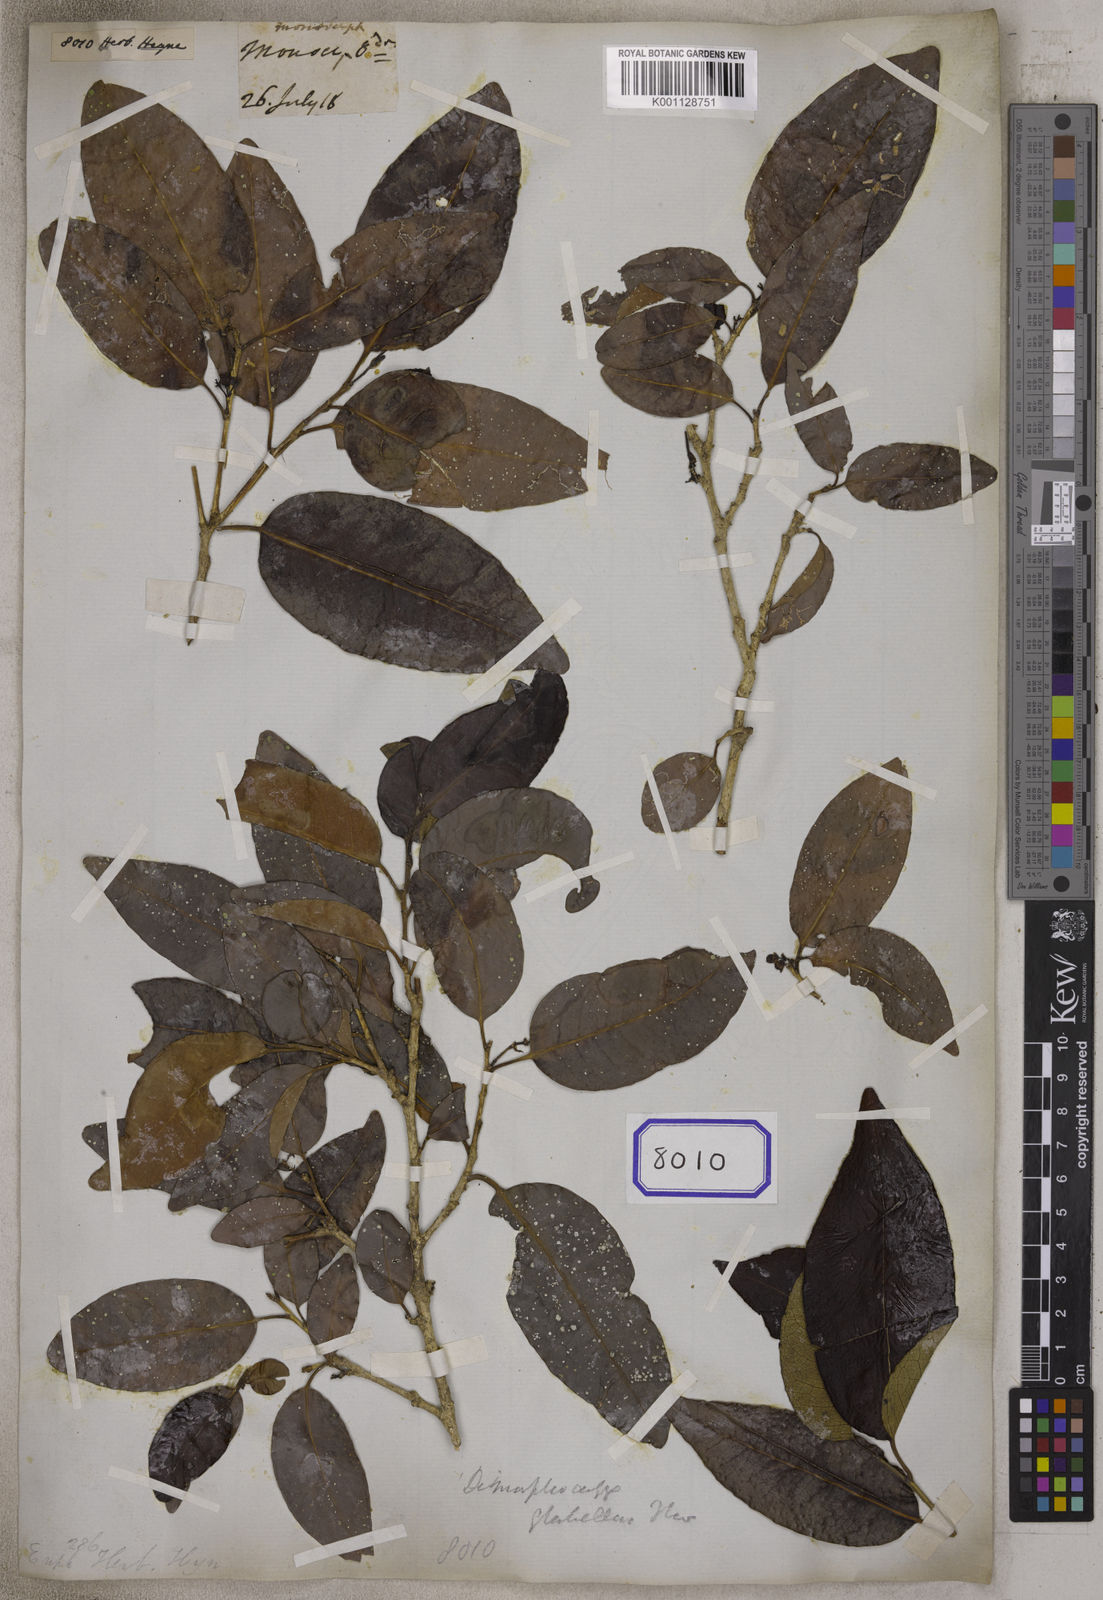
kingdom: Plantae
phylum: Tracheophyta
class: Magnoliopsida
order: Malpighiales
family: Euphorbiaceae
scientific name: Euphorbiaceae
